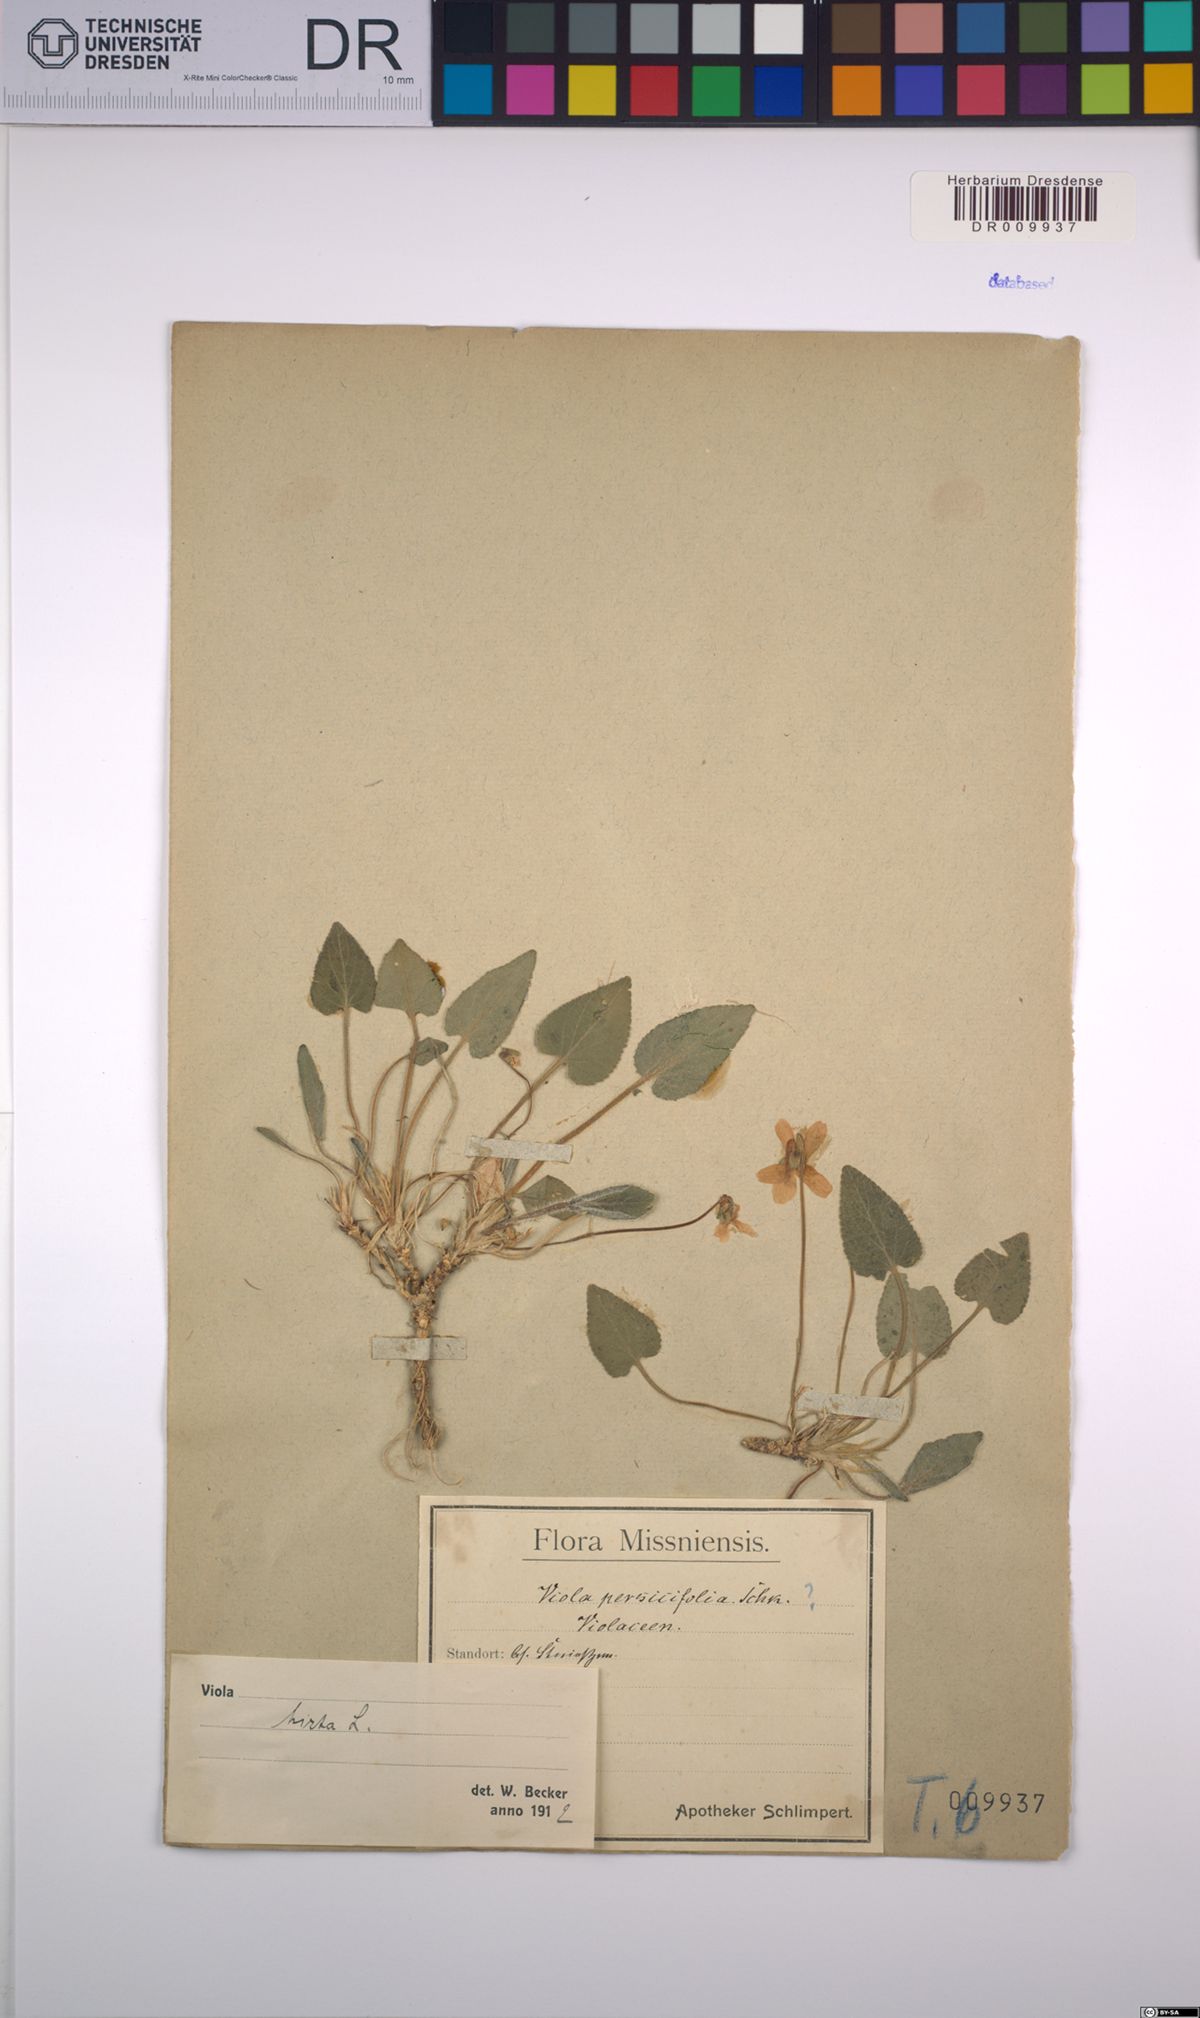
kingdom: Plantae
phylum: Tracheophyta
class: Magnoliopsida
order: Malpighiales
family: Violaceae
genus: Viola
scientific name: Viola hirta
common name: Hairy violet
